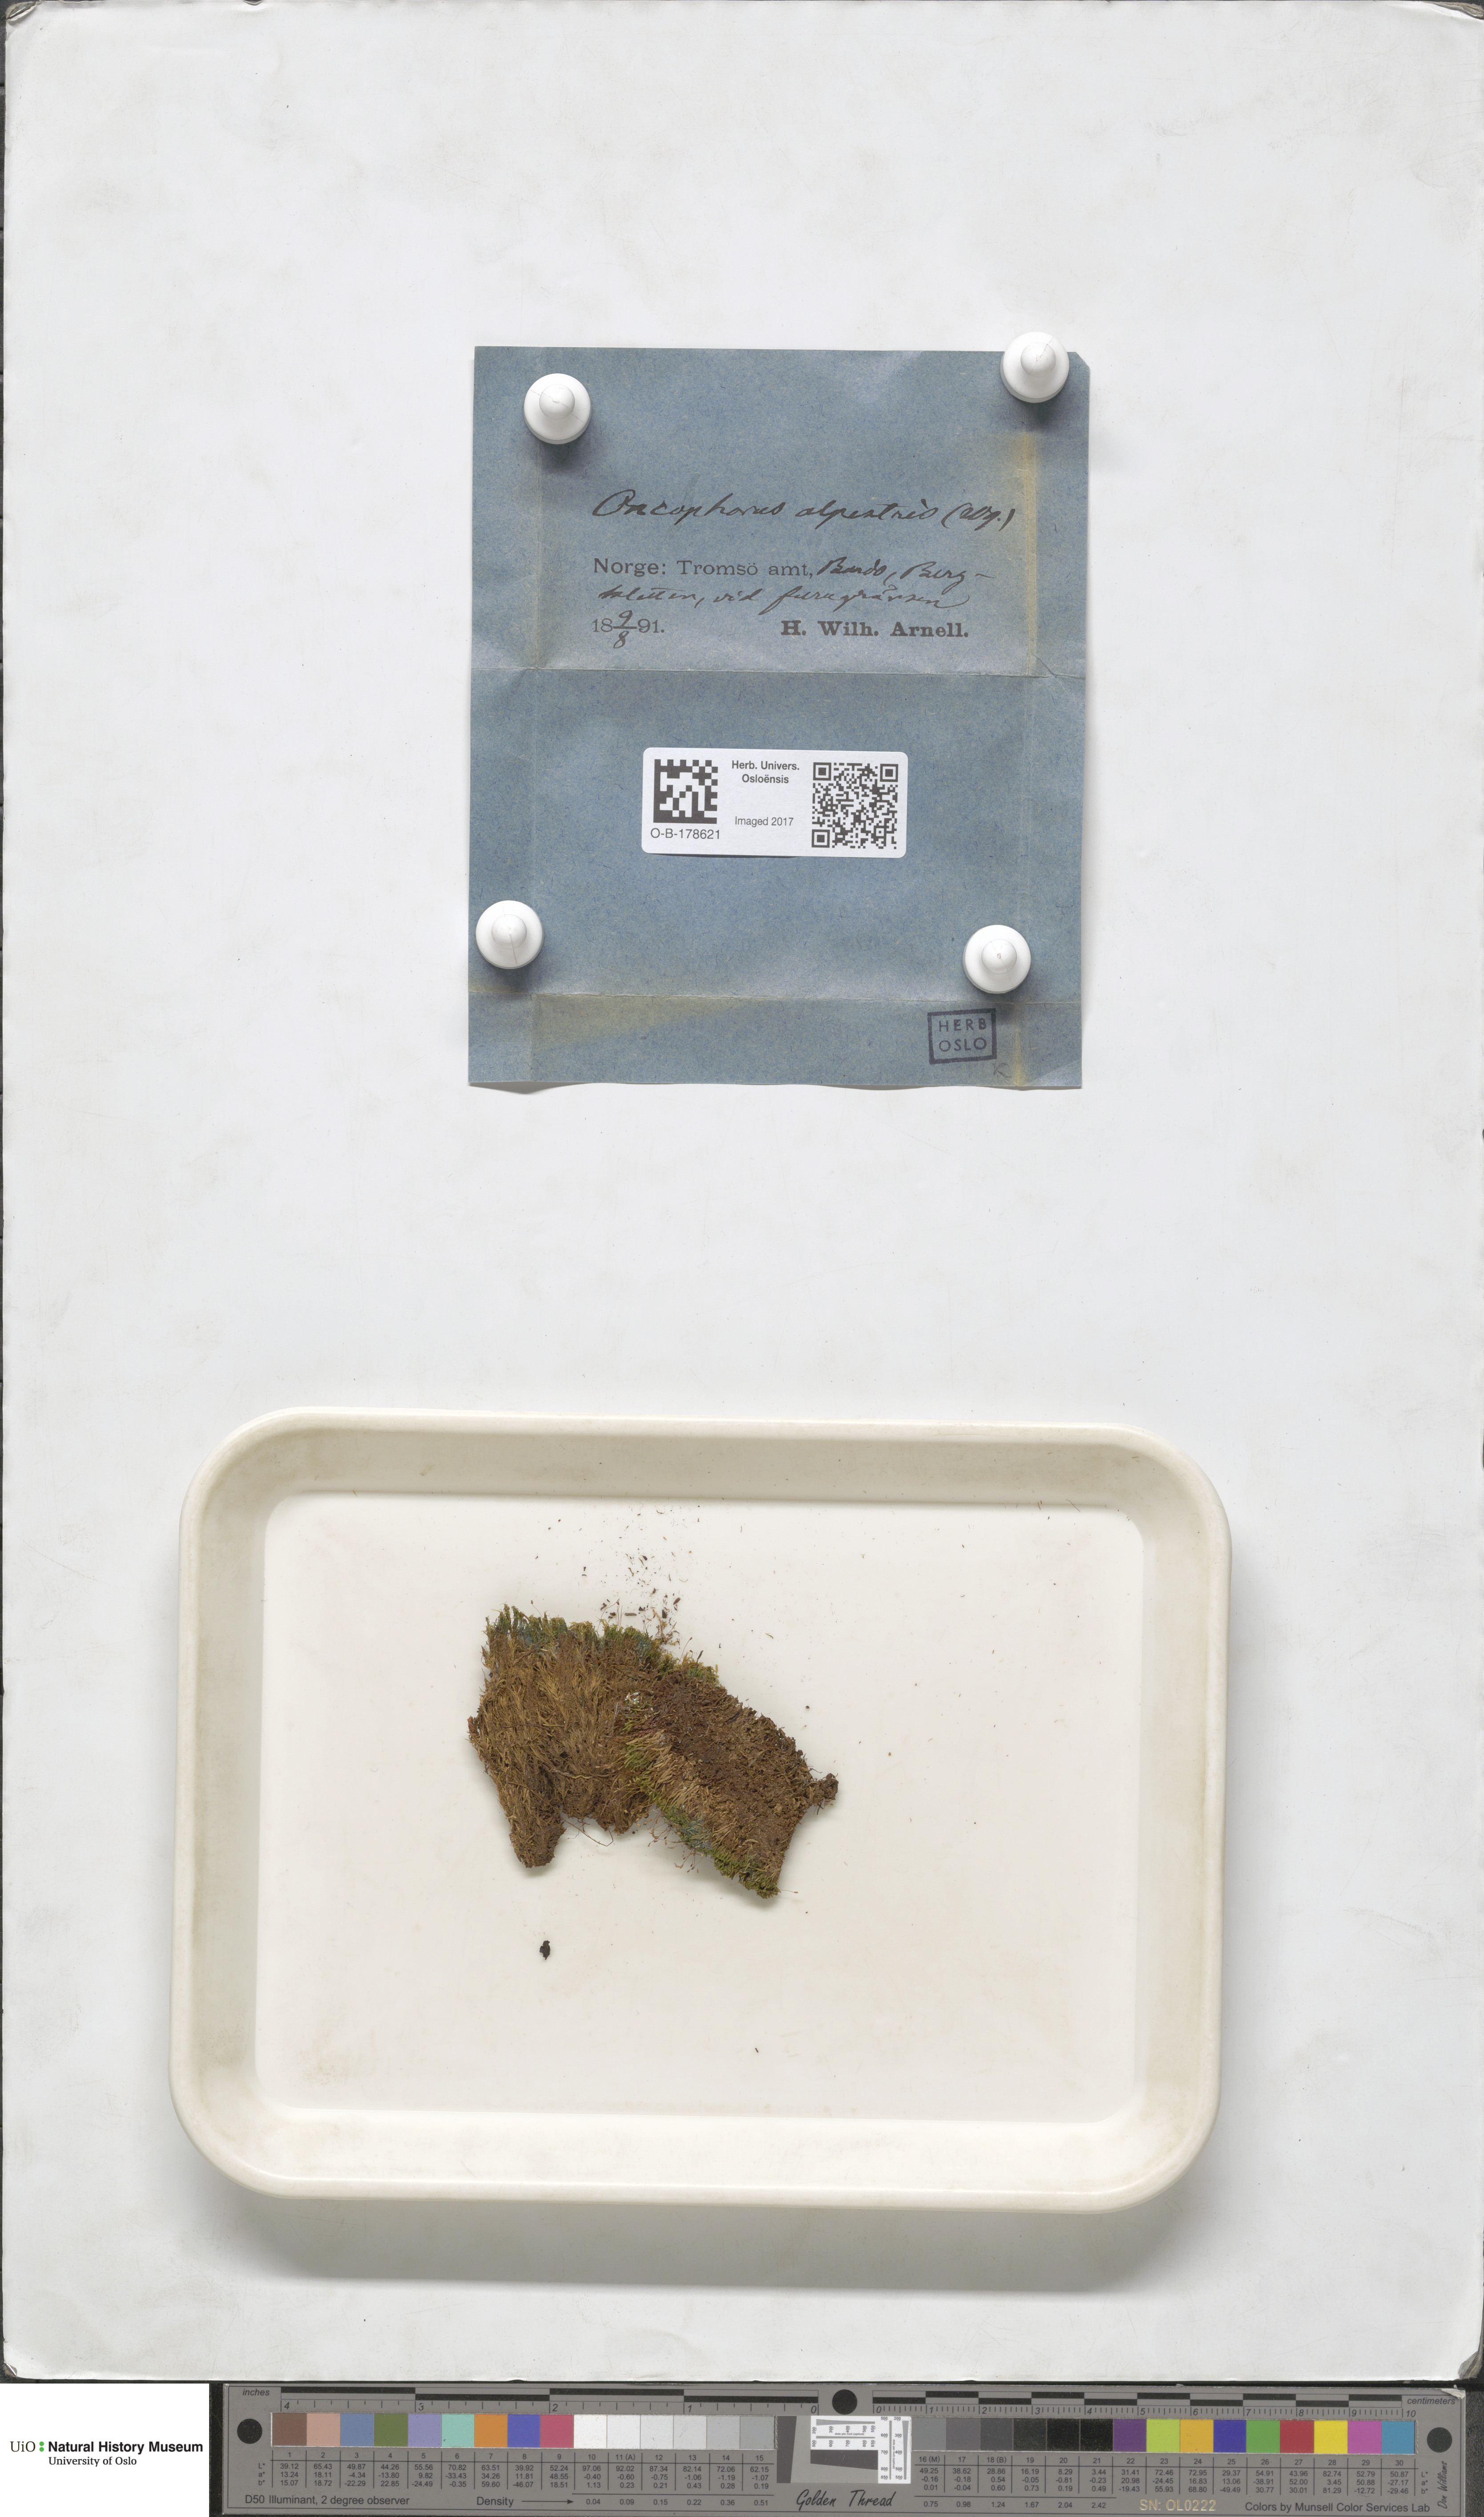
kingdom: Plantae
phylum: Bryophyta
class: Bryopsida
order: Dicranales
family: Rhabdoweisiaceae
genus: Cnestrum
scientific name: Cnestrum alpestre
